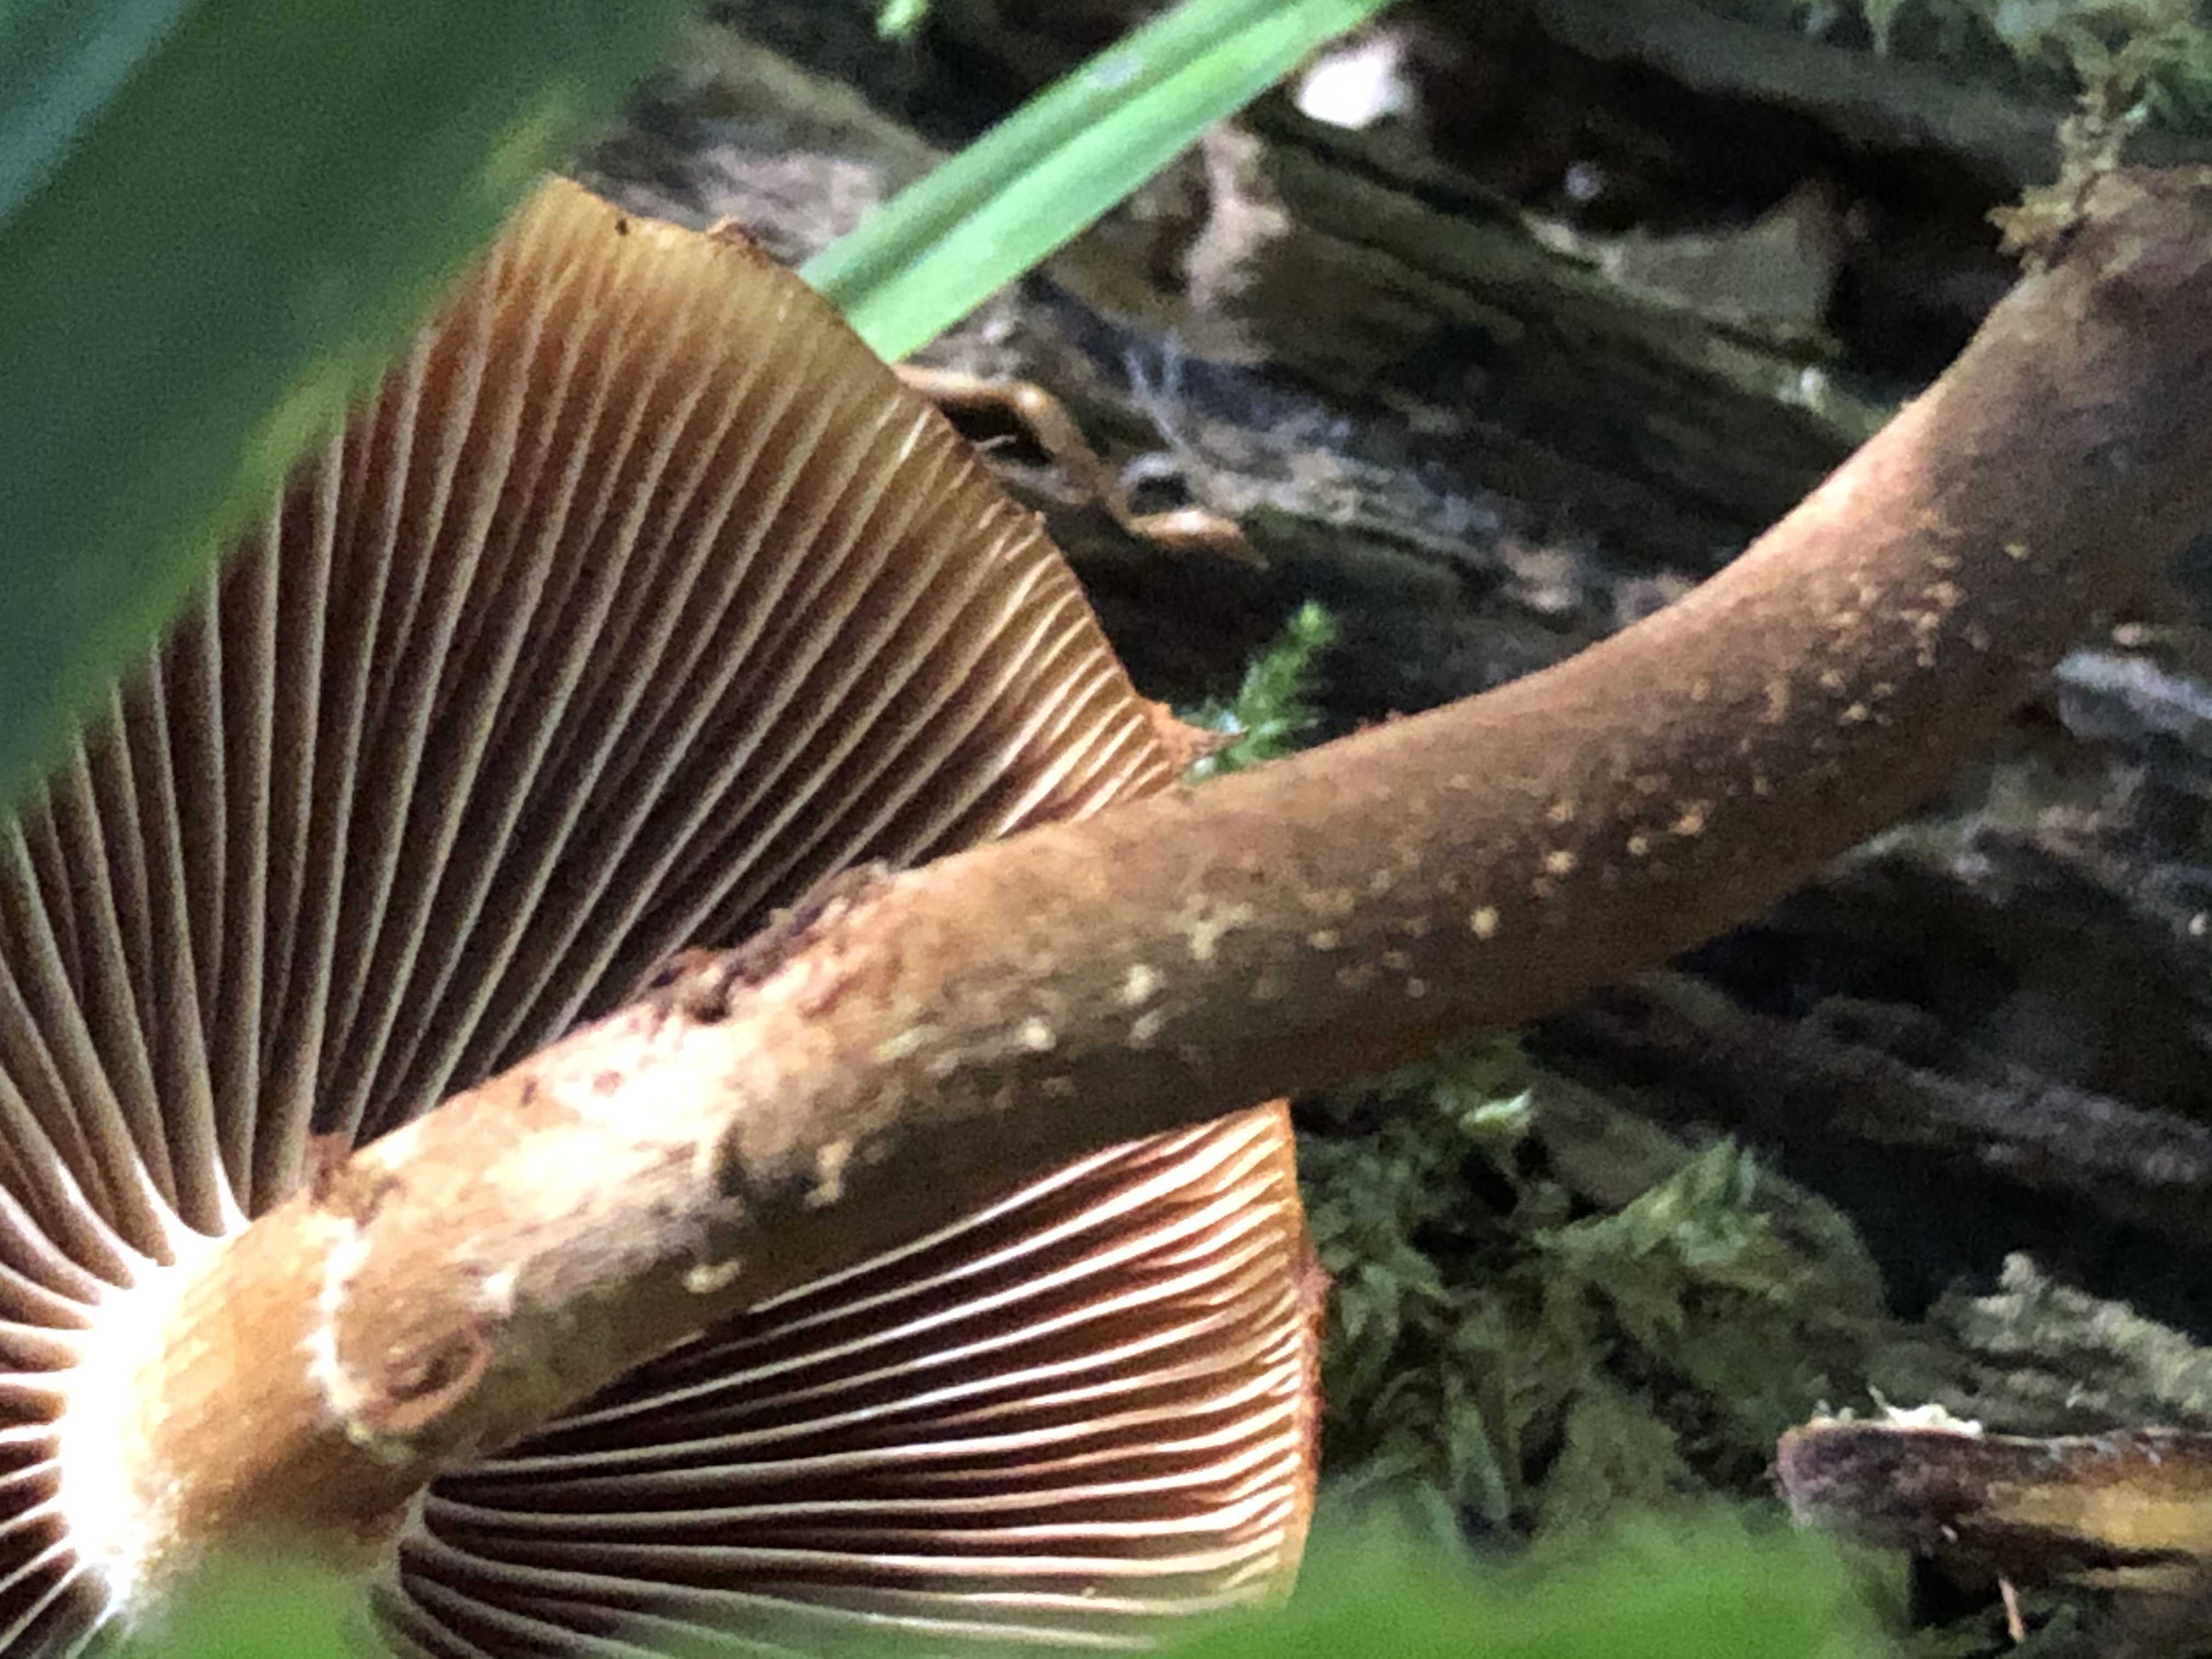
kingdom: Fungi
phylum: Basidiomycota
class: Agaricomycetes
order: Agaricales
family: Strophariaceae
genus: Kuehneromyces
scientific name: Kuehneromyces mutabilis
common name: foranderlig skælhat
